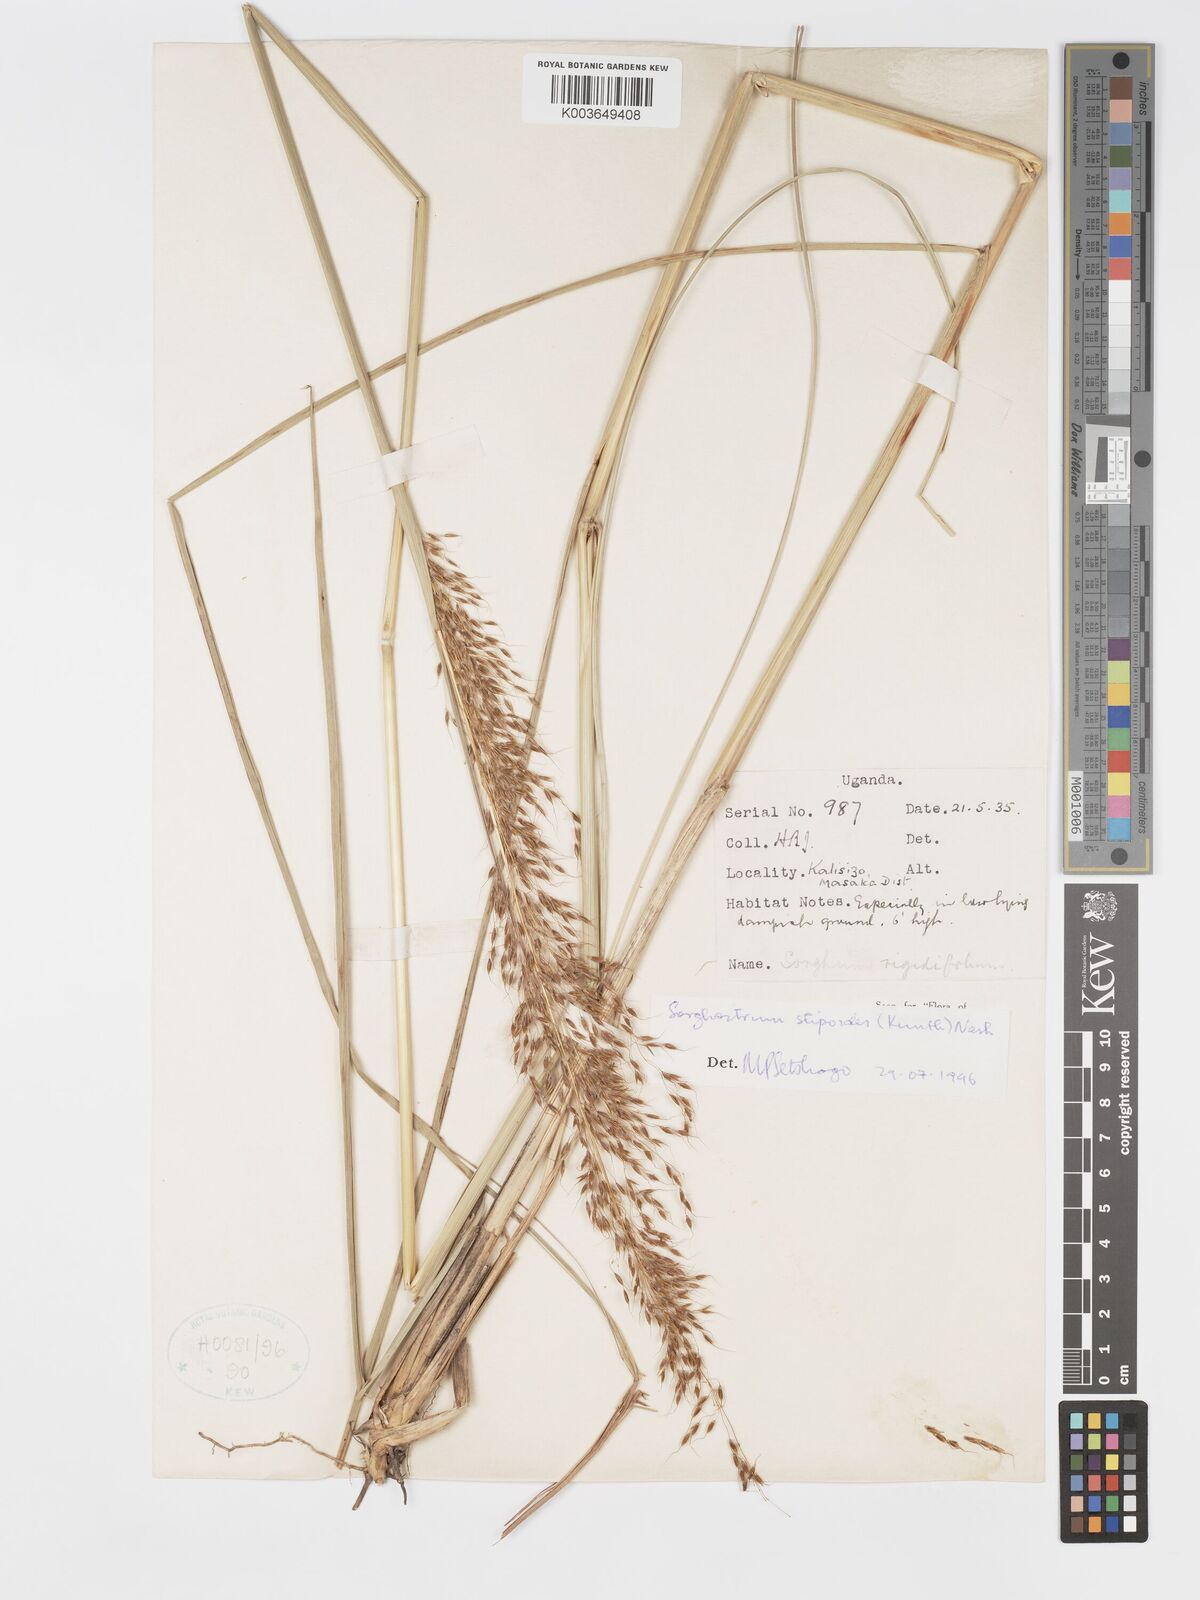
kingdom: Plantae
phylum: Tracheophyta
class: Liliopsida
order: Poales
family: Poaceae
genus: Sorghastrum
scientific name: Sorghastrum stipoides
